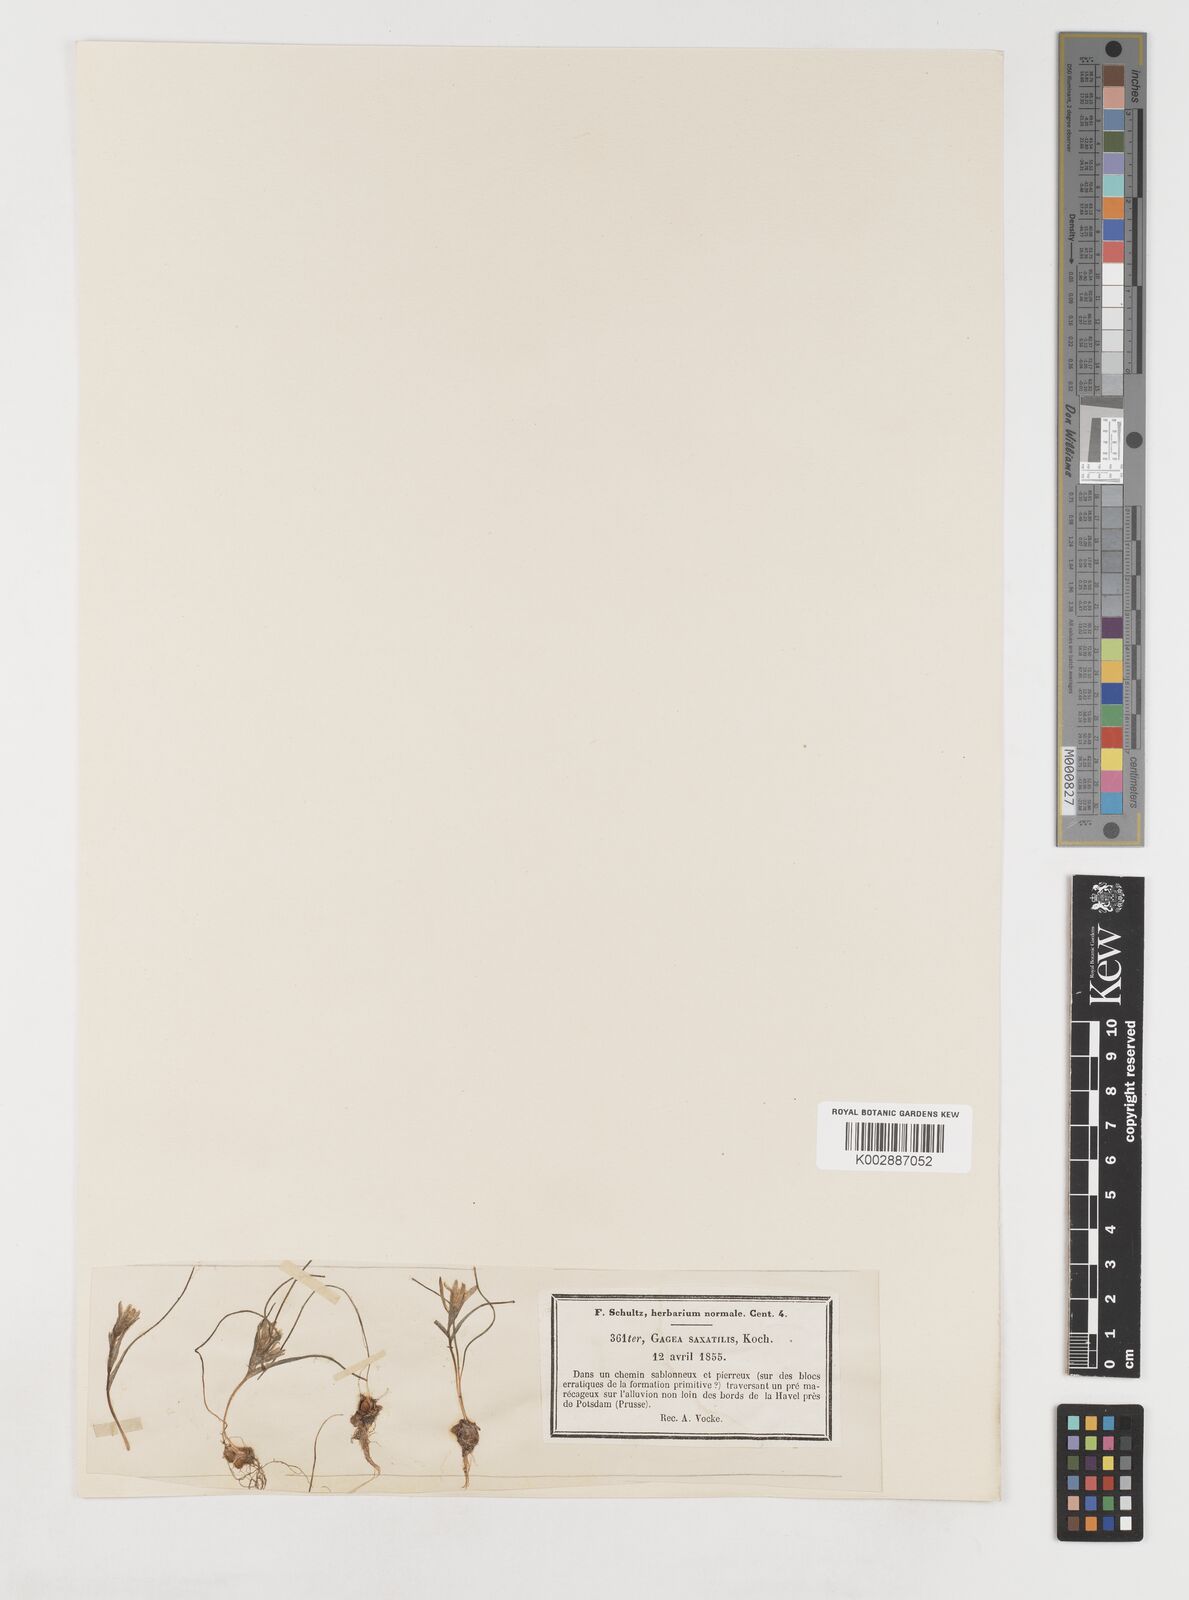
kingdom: Plantae
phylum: Tracheophyta
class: Liliopsida
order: Liliales
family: Liliaceae
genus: Gagea
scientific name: Gagea bohemica
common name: Early star-of-bethlehem
